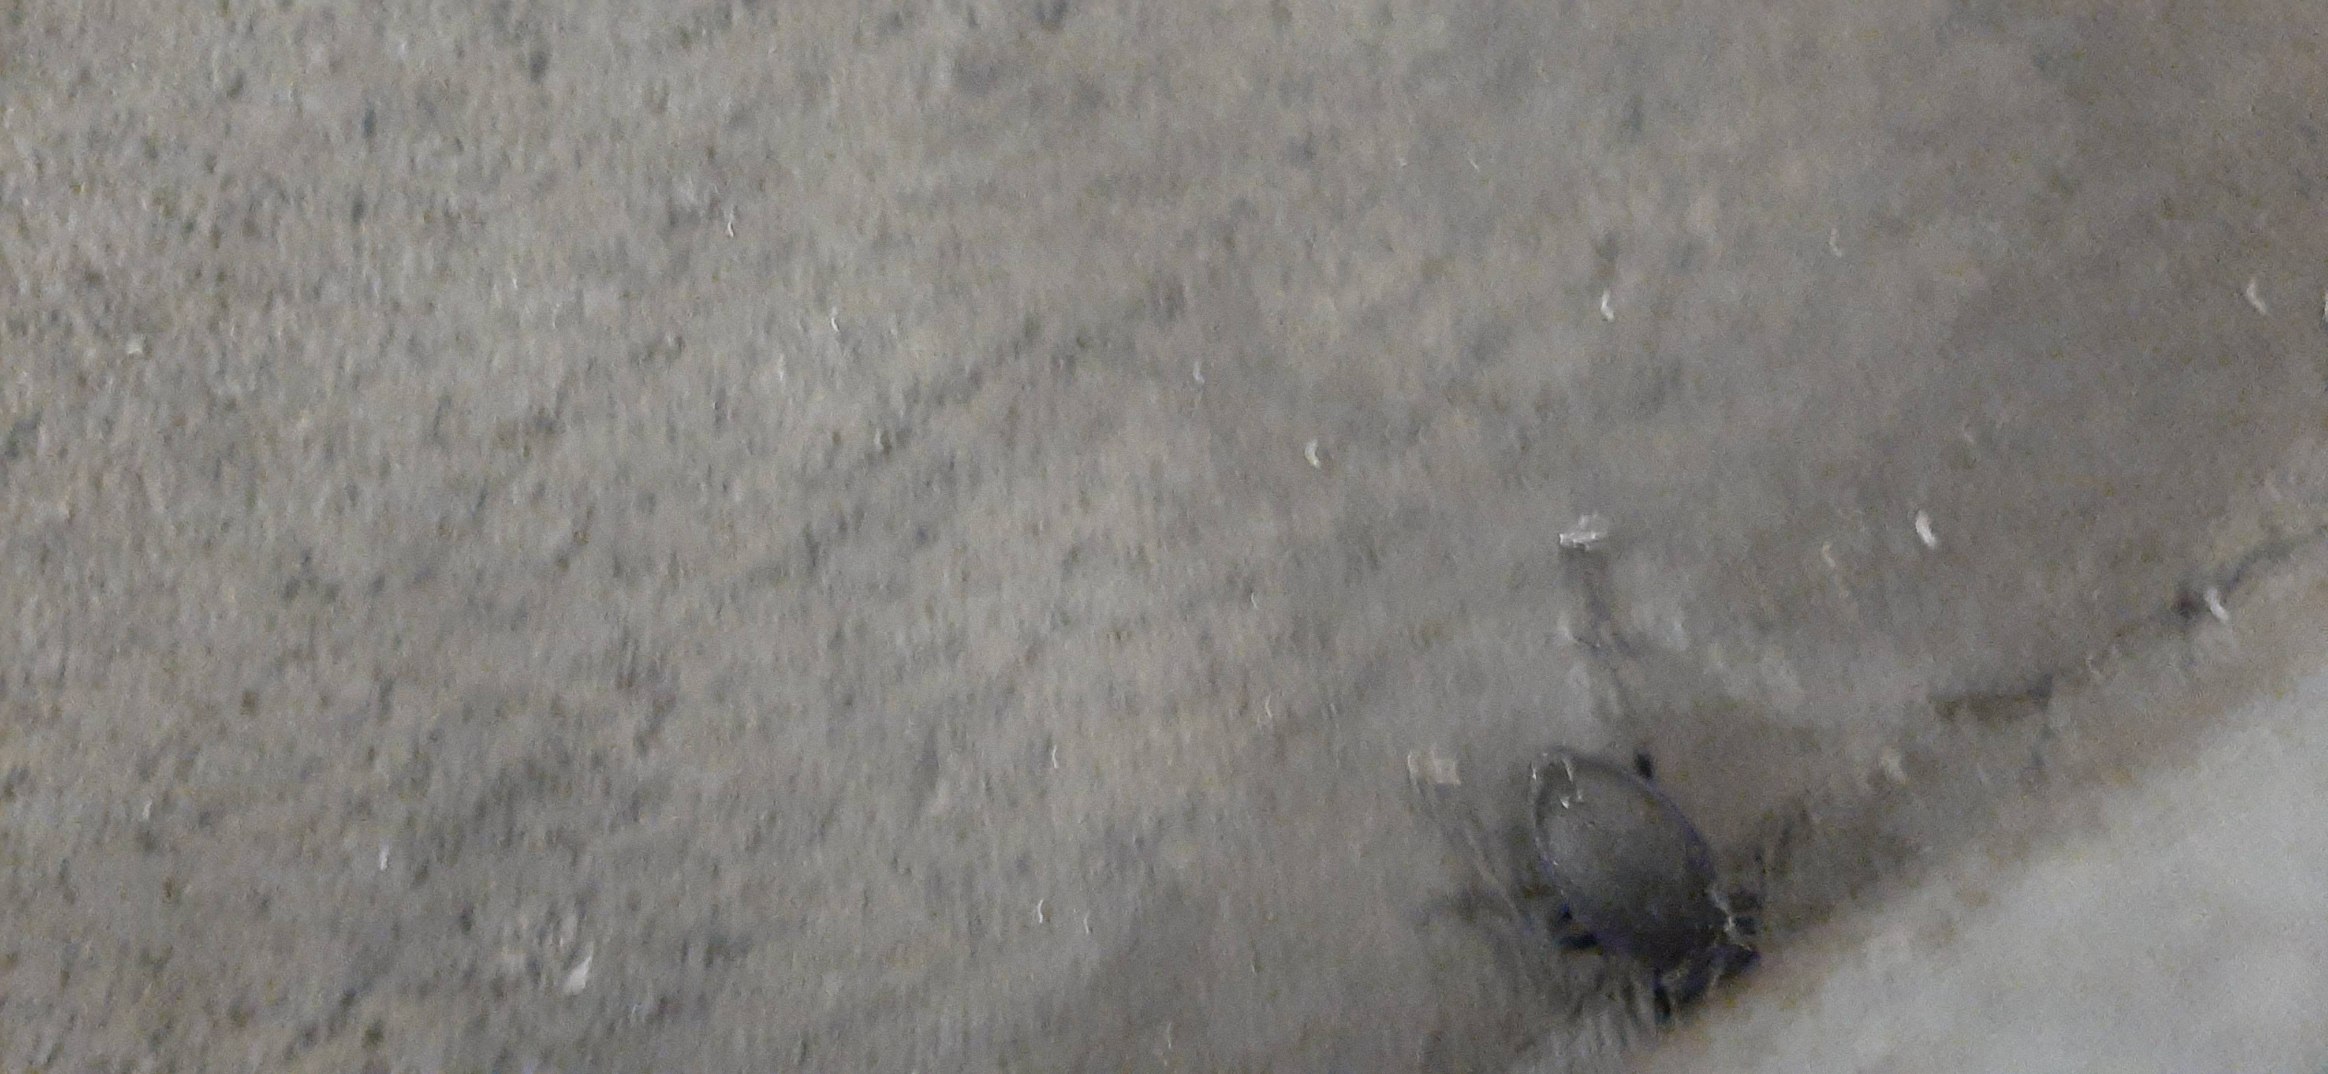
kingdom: Animalia
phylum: Arthropoda
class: Insecta
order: Coleoptera
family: Carabidae
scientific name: Carabidae
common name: Løbebiller
